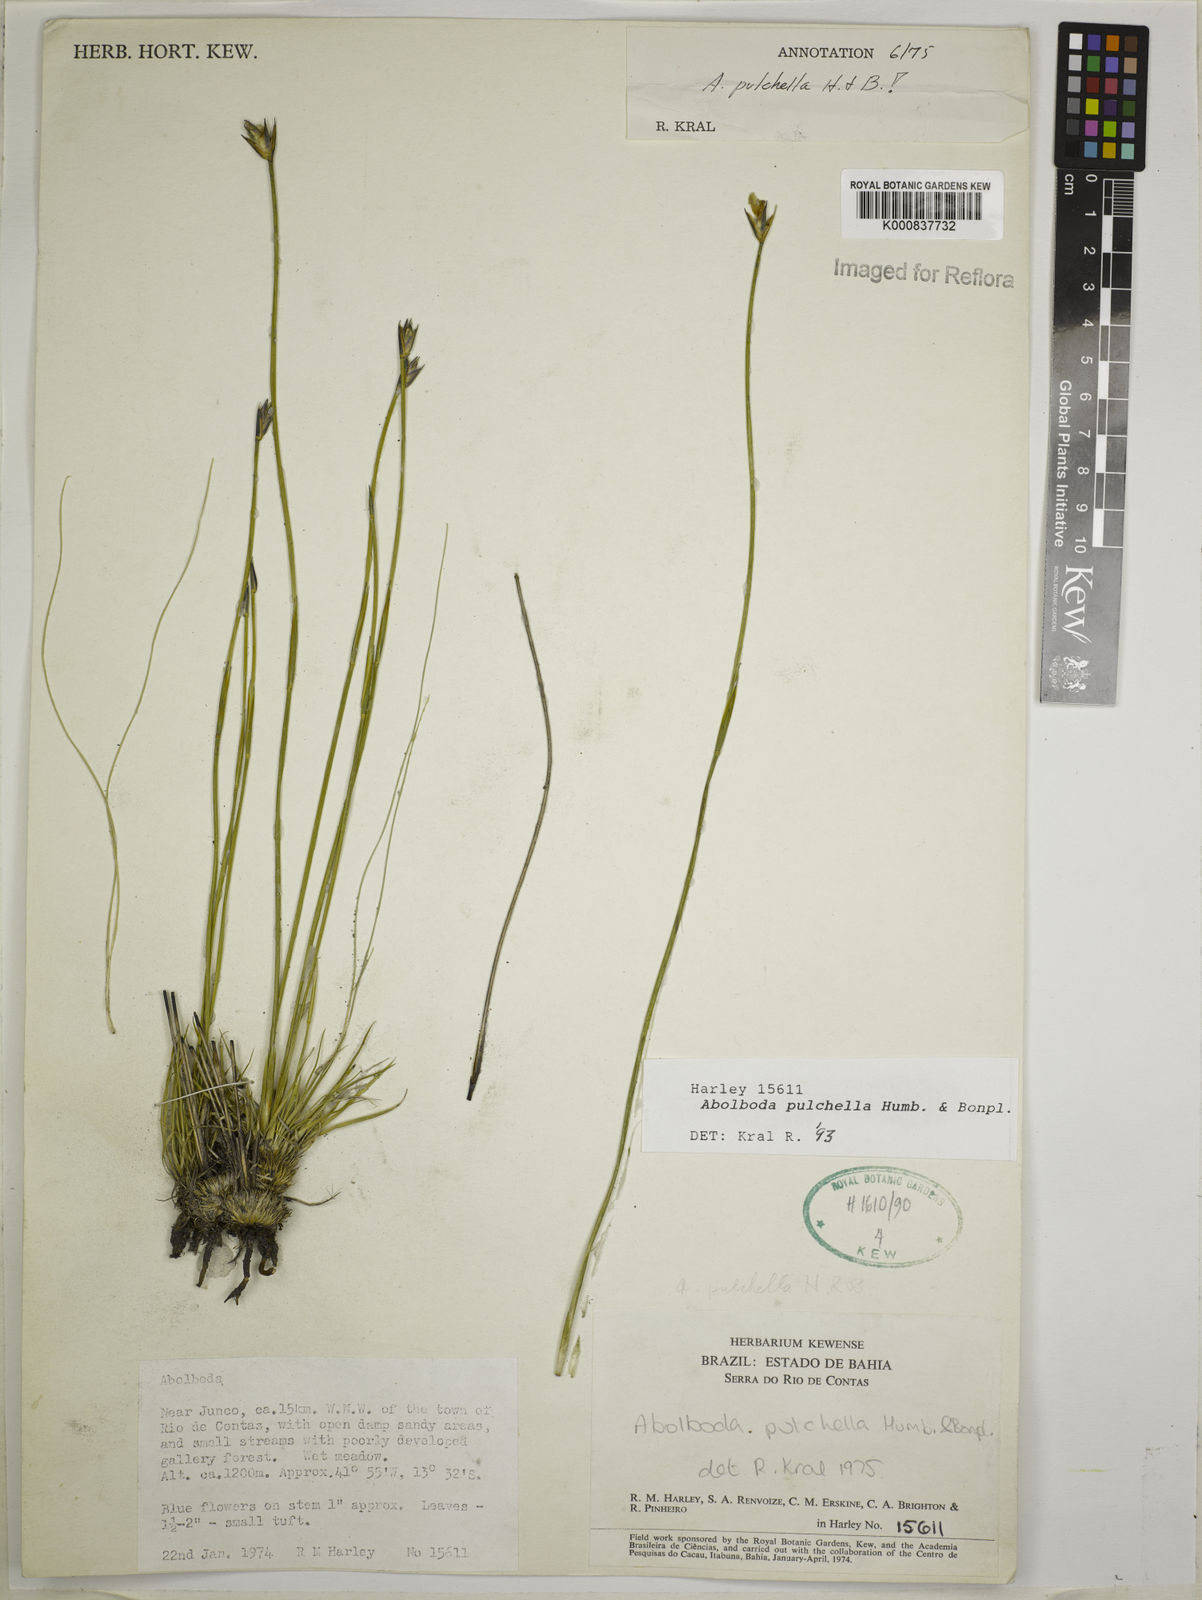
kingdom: Plantae
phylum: Tracheophyta
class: Liliopsida
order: Poales
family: Xyridaceae
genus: Abolboda
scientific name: Abolboda pulchella
